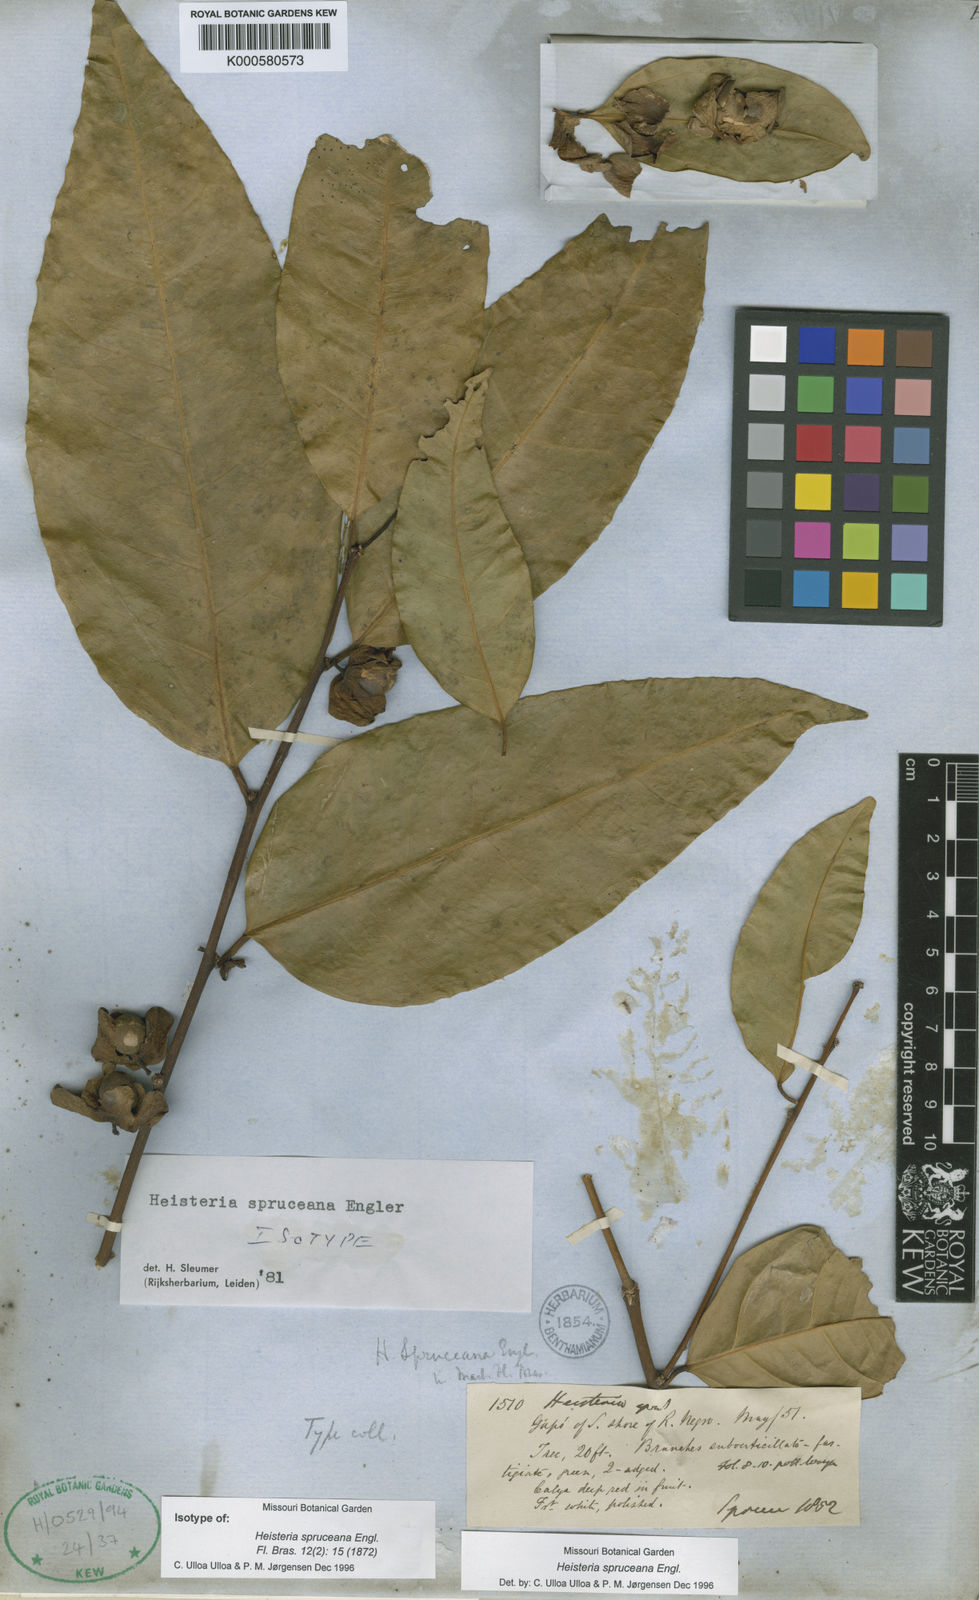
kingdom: Plantae
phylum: Tracheophyta
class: Magnoliopsida
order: Santalales
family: Erythropalaceae
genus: Heisteria
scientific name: Heisteria spruceana
